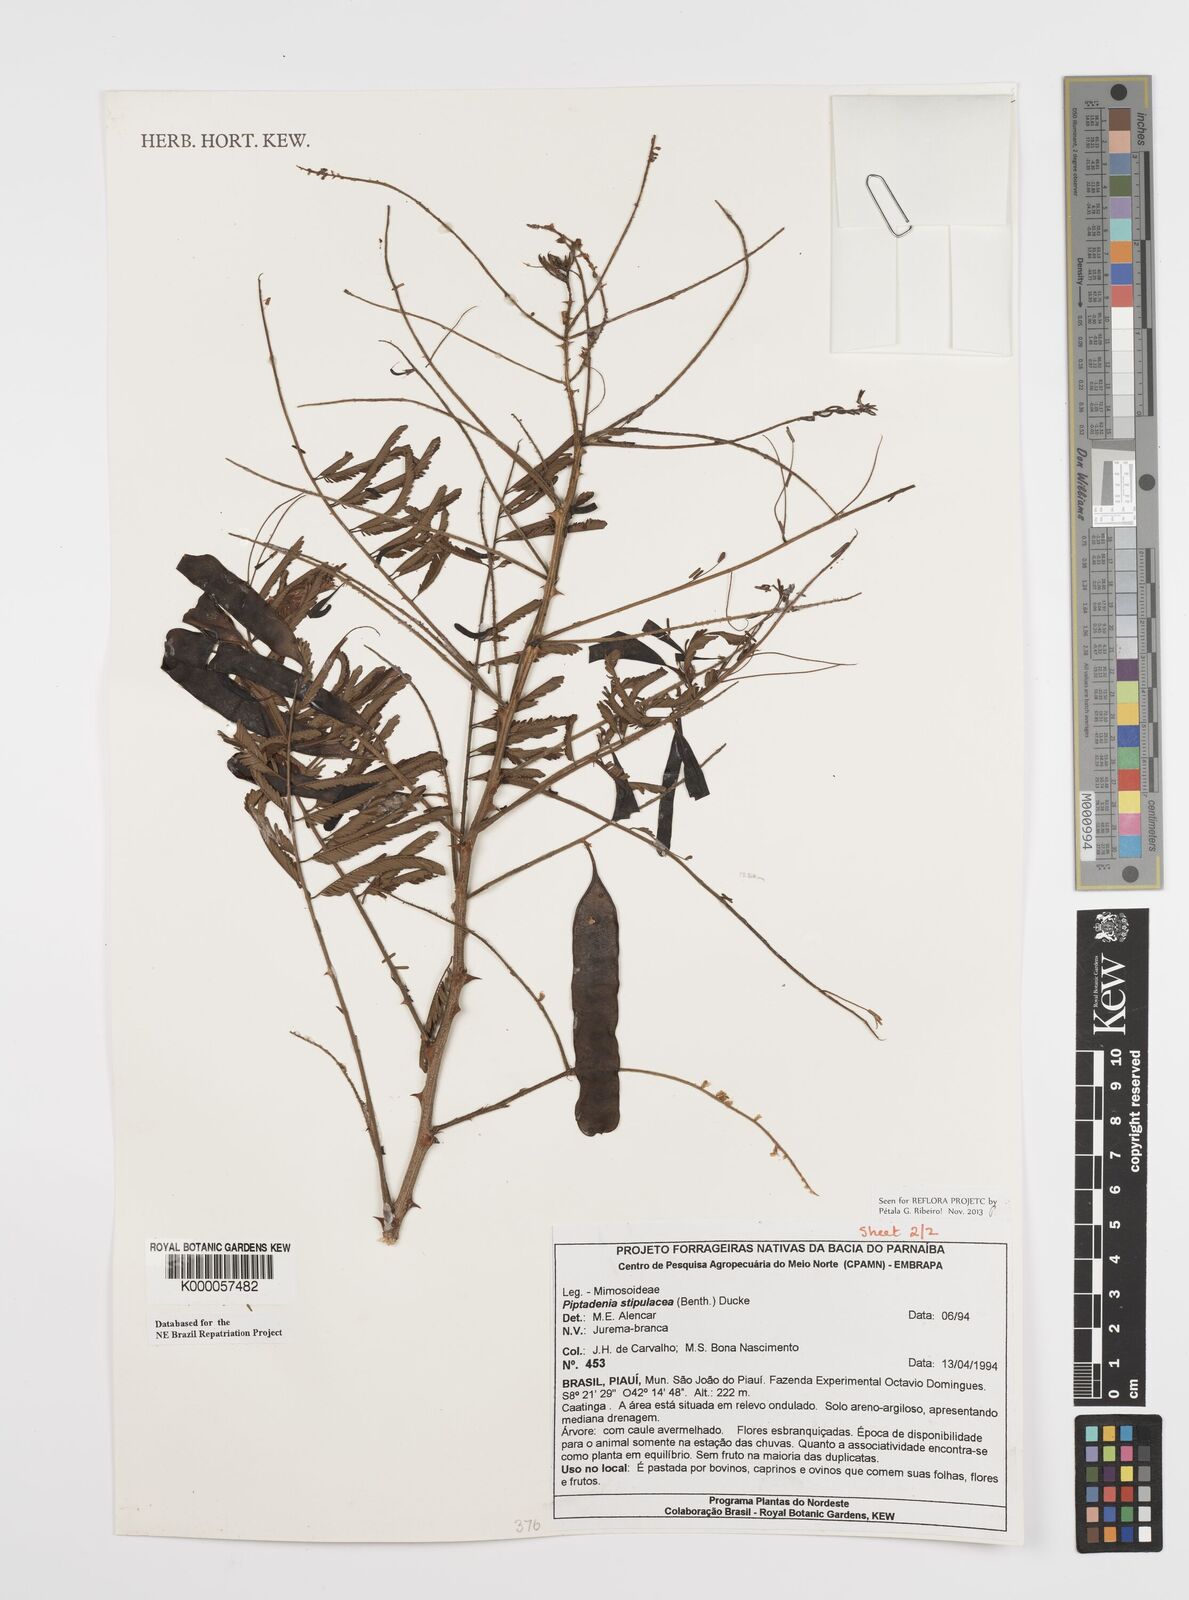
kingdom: Plantae
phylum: Tracheophyta
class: Magnoliopsida
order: Fabales
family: Fabaceae
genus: Piptadenia
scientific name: Piptadenia retusa
